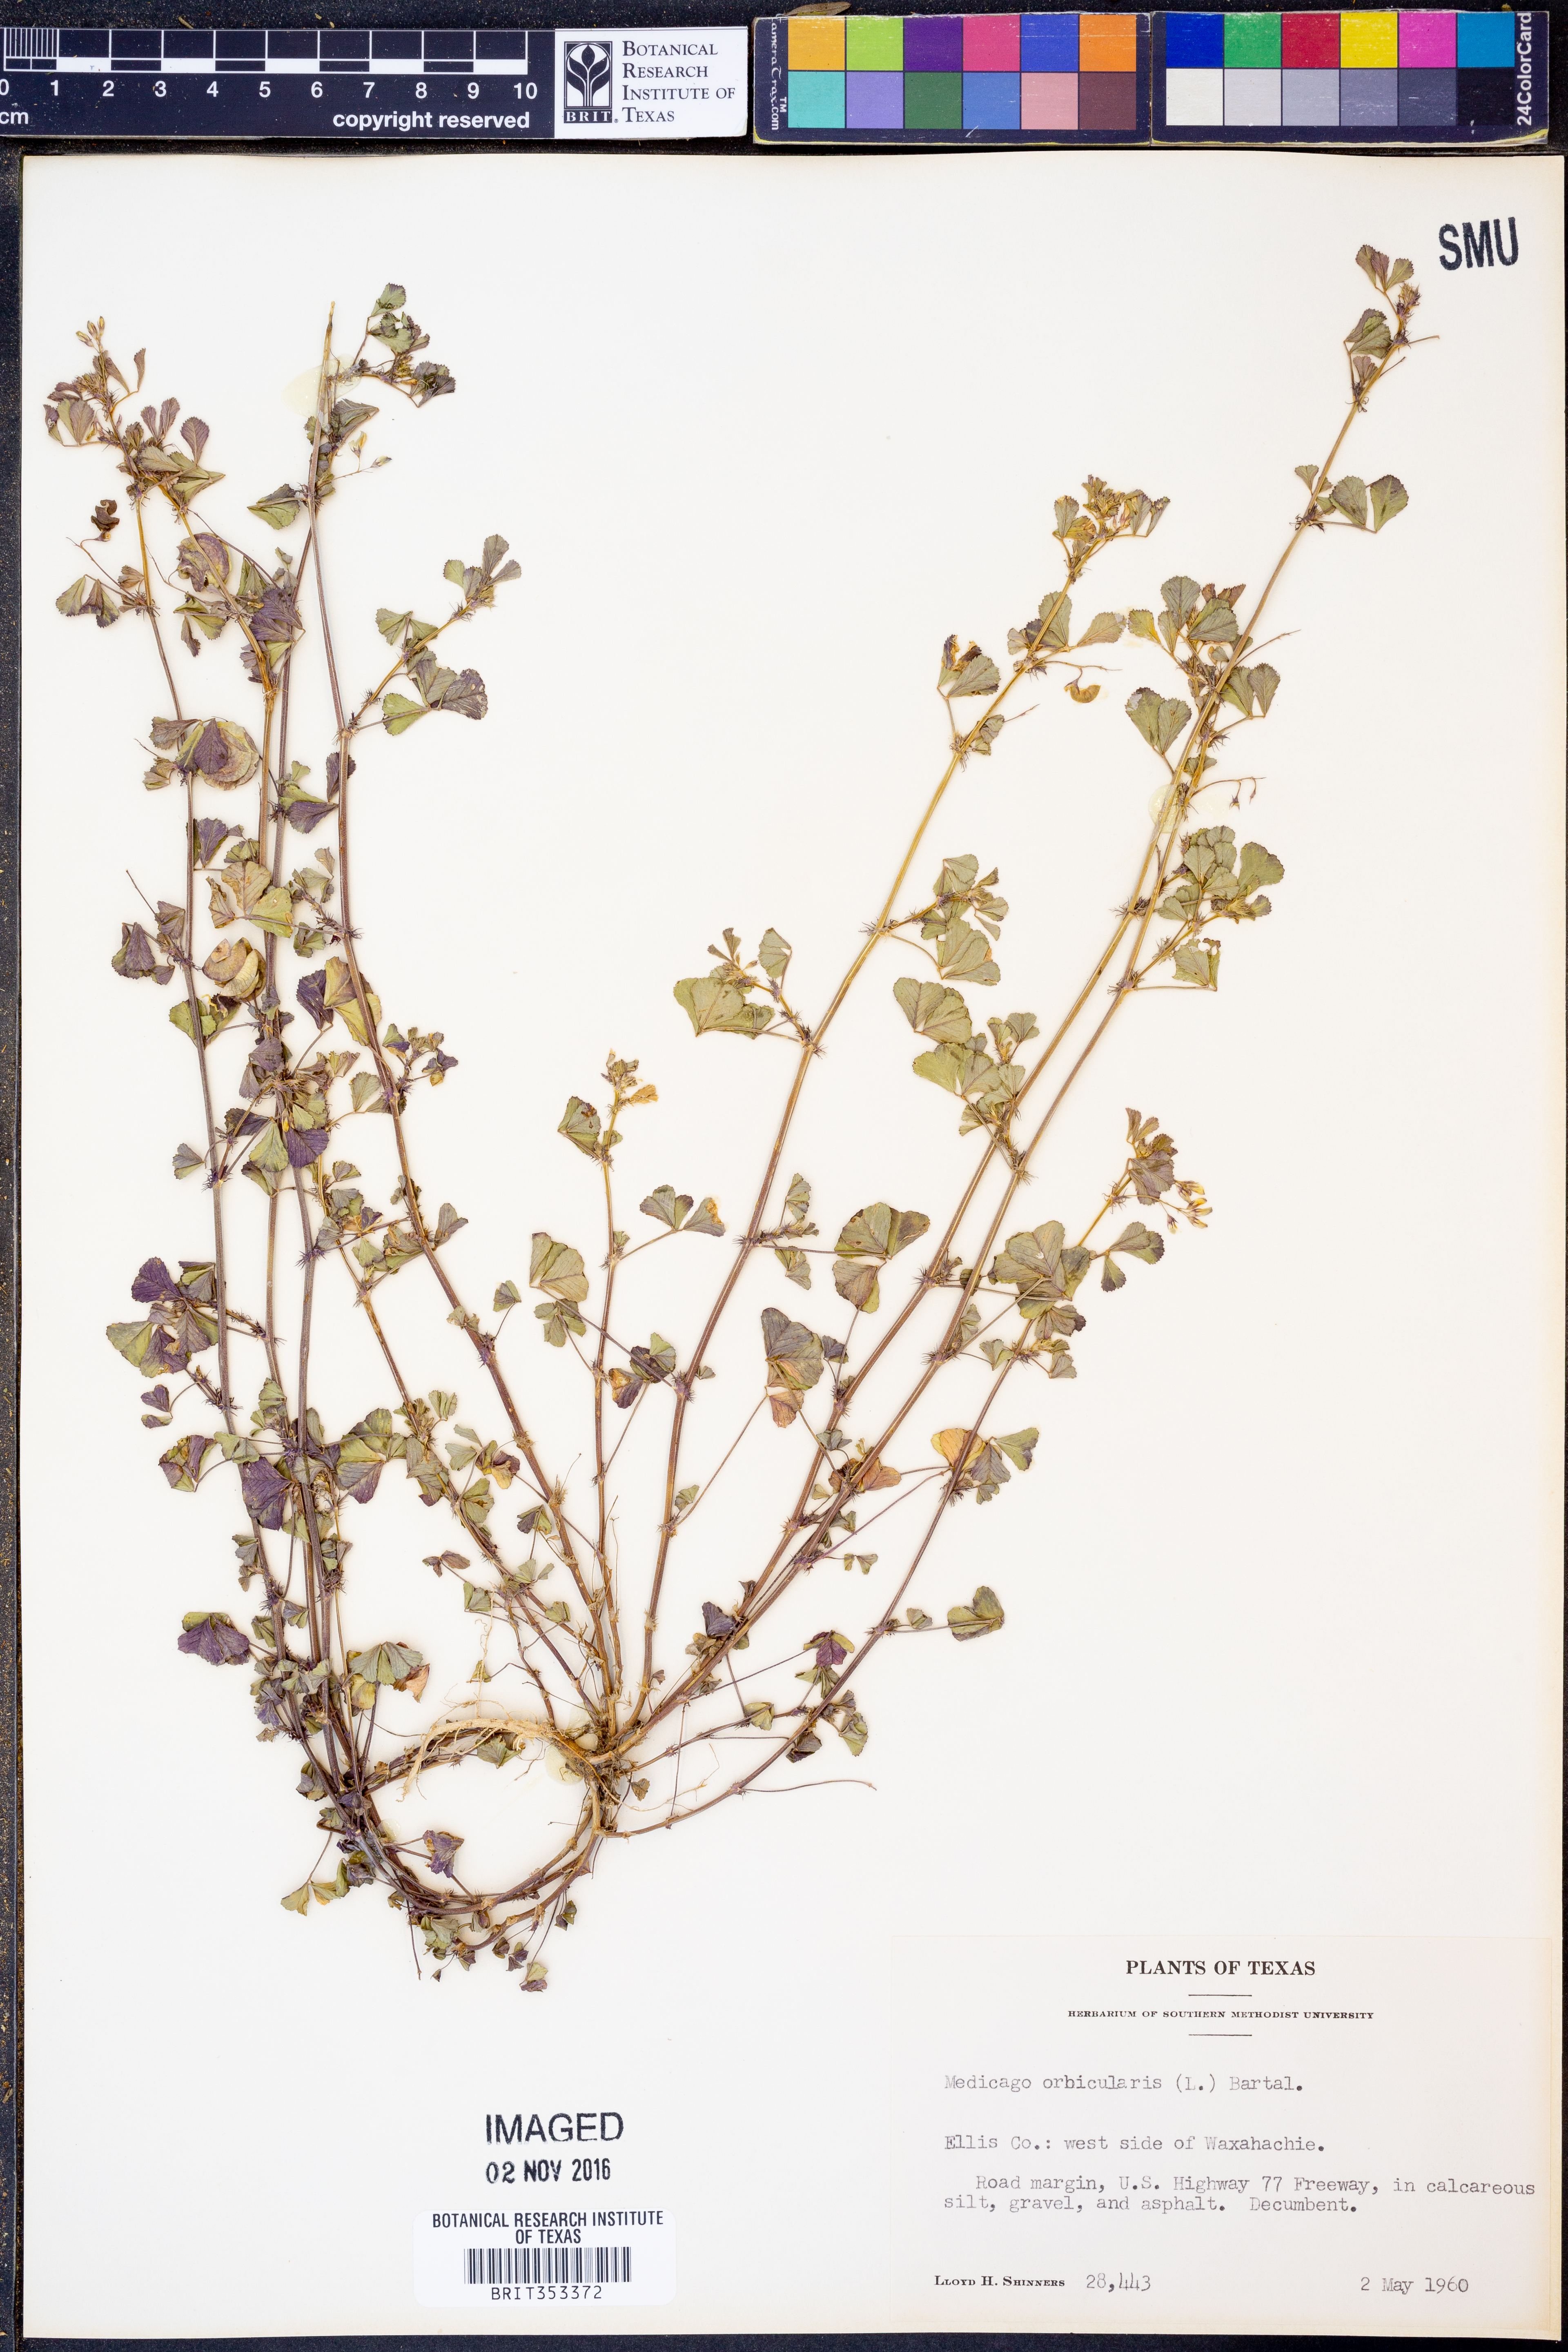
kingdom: Plantae
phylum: Tracheophyta
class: Magnoliopsida
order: Fabales
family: Fabaceae
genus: Medicago
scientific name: Medicago orbicularis
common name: Button medick
